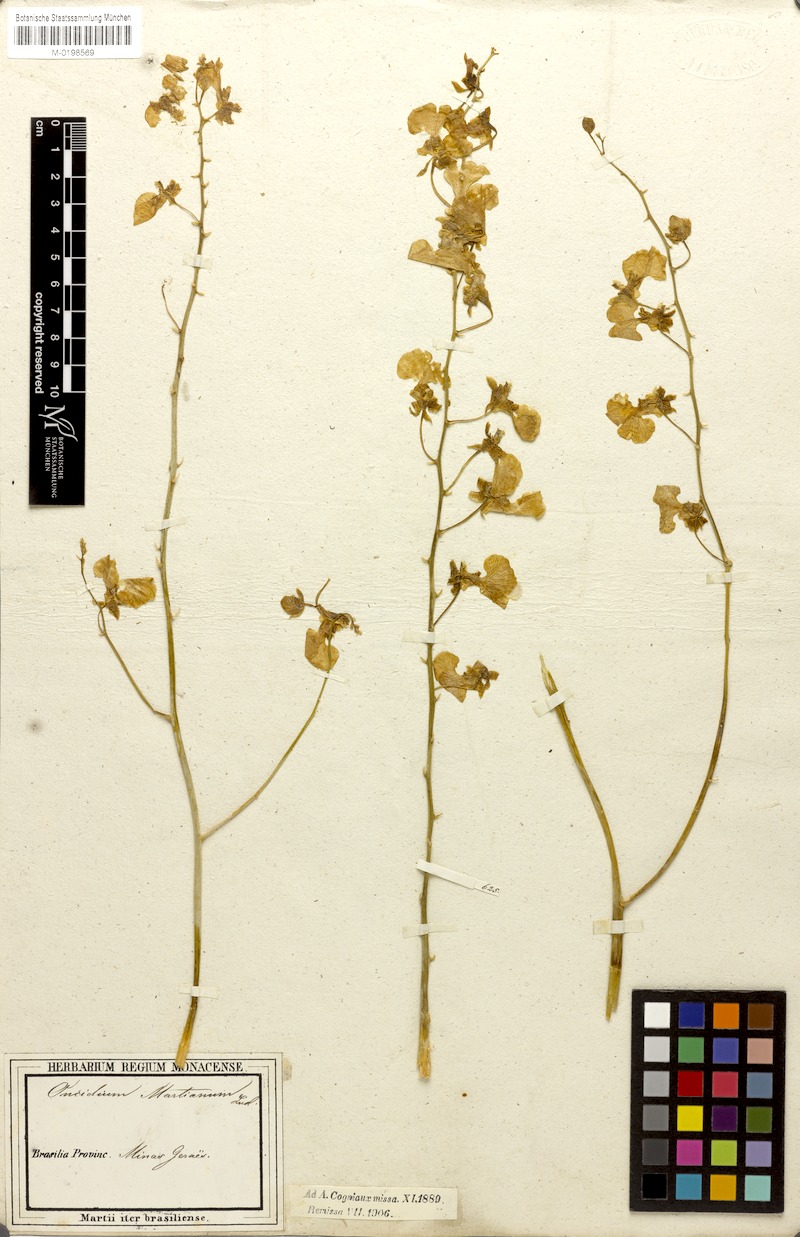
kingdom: Plantae
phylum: Tracheophyta
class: Liliopsida
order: Asparagales
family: Orchidaceae
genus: Gomesa
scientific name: Gomesa martiana
